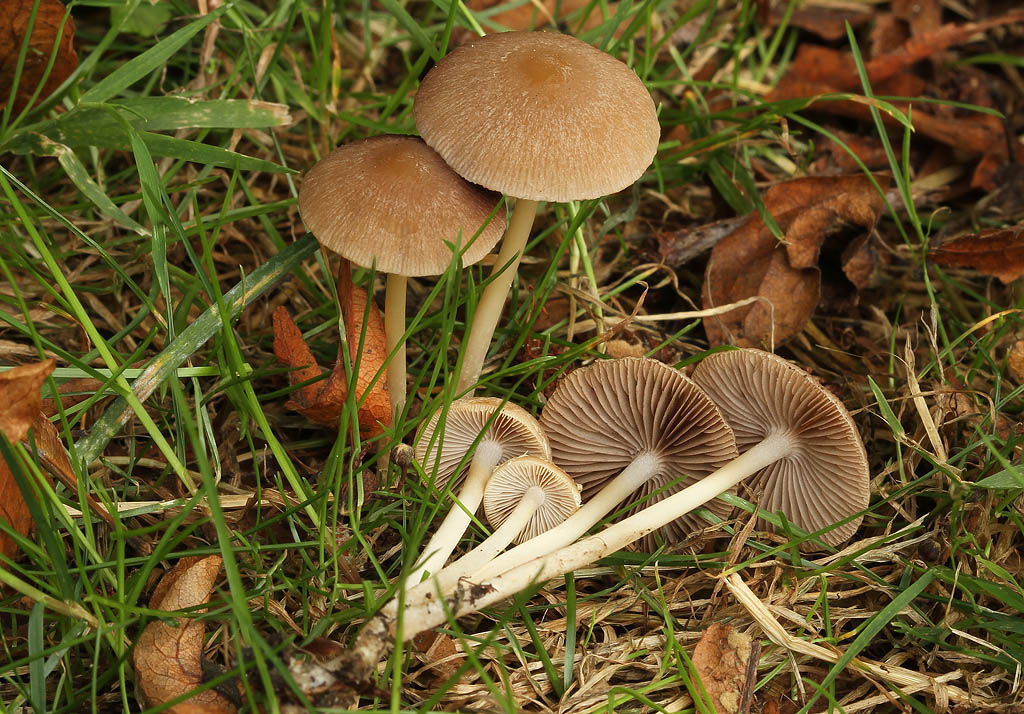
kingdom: Fungi
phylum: Basidiomycota
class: Agaricomycetes
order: Agaricales
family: Psathyrellaceae
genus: Psathyrella
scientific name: Psathyrella fatua
